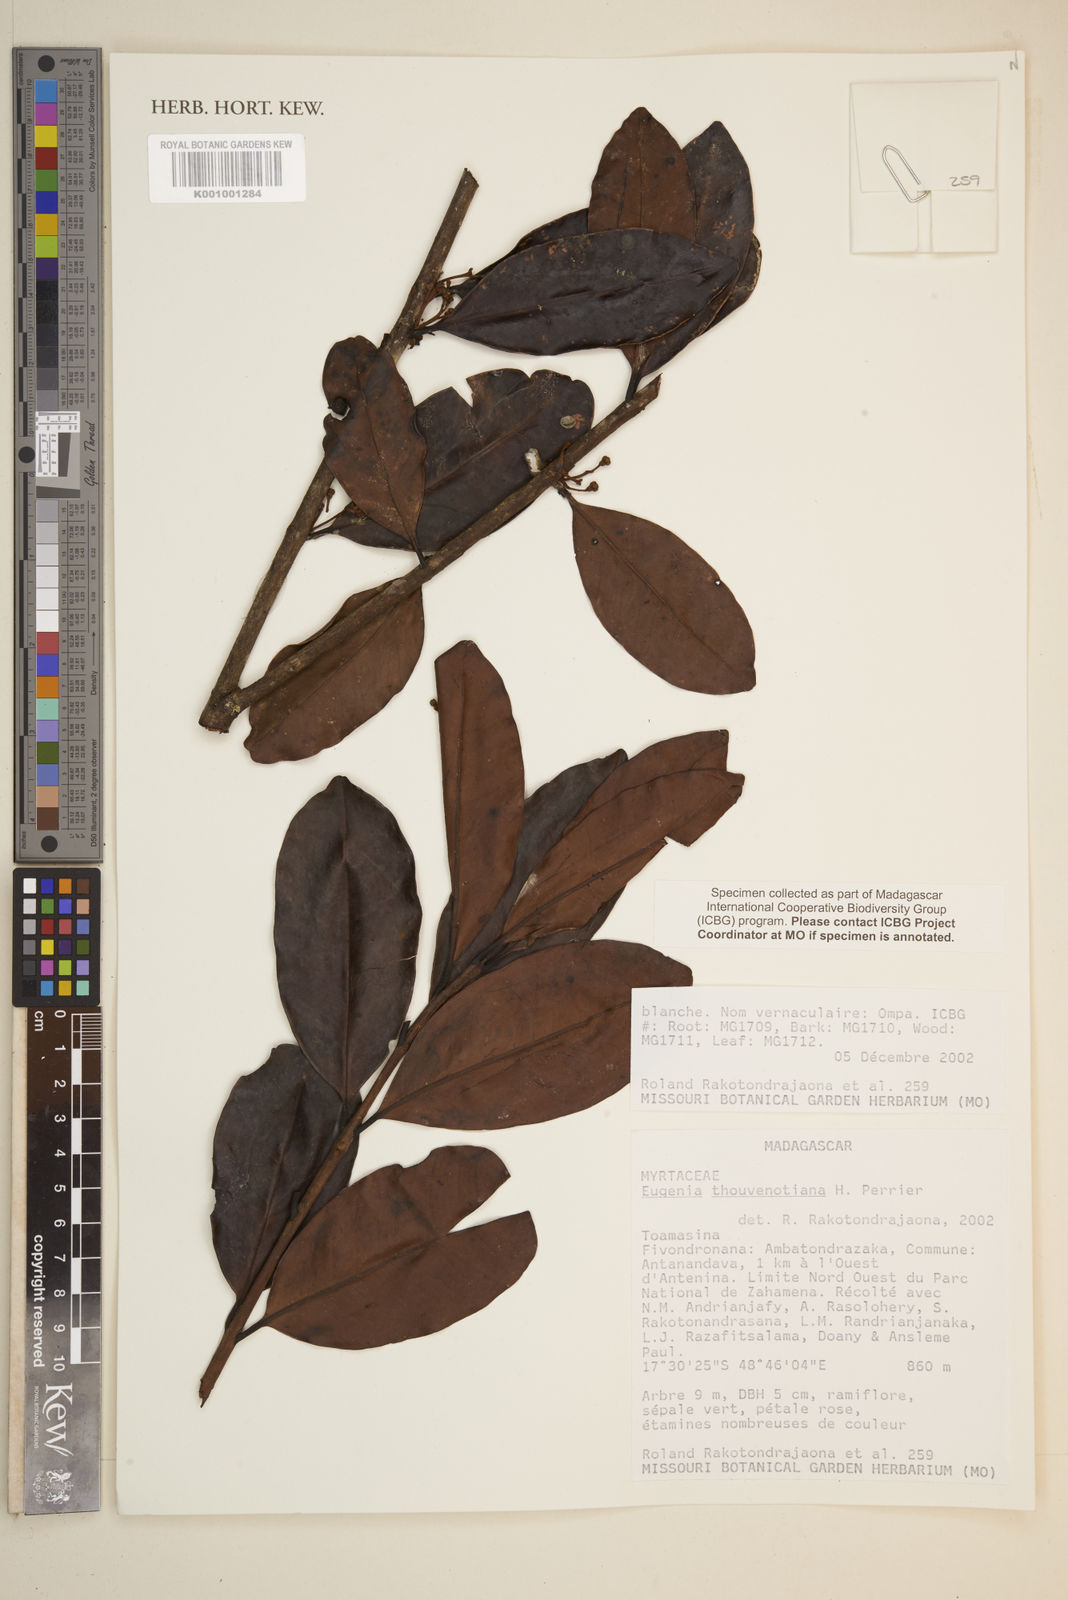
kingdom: Plantae
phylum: Tracheophyta
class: Magnoliopsida
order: Myrtales
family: Myrtaceae
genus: Eugenia
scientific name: Eugenia thouvenotiana
